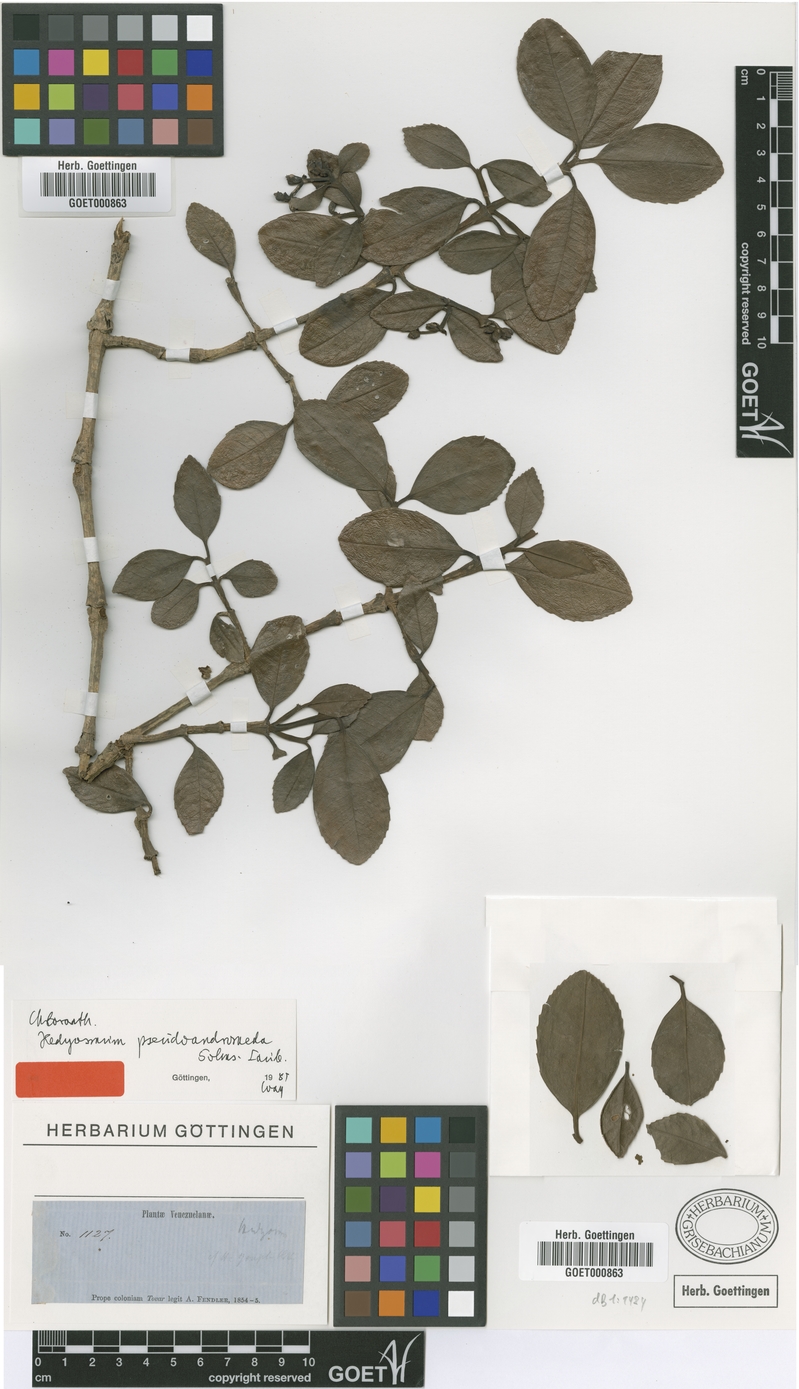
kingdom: Plantae
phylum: Tracheophyta
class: Magnoliopsida
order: Chloranthales
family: Chloranthaceae
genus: Hedyosmum
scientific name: Hedyosmum pseudoandromeda
